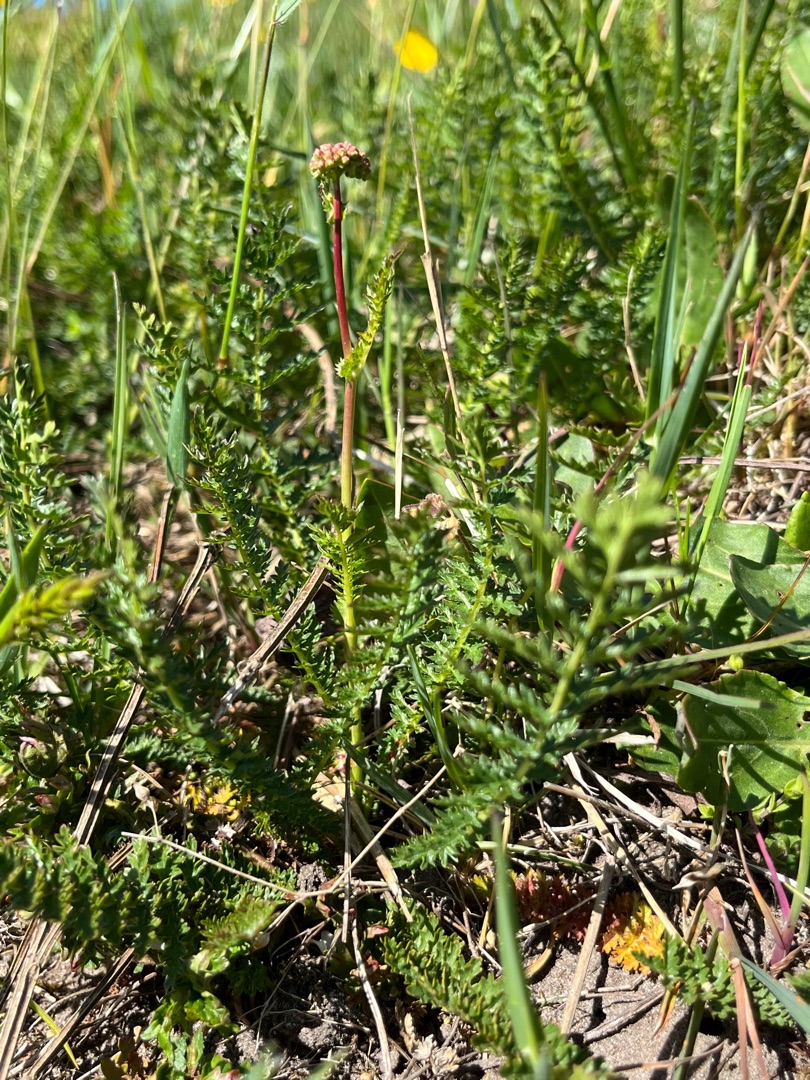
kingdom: Plantae
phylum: Tracheophyta
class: Magnoliopsida
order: Rosales
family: Rosaceae
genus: Filipendula
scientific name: Filipendula vulgaris
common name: Knoldet mjødurt
